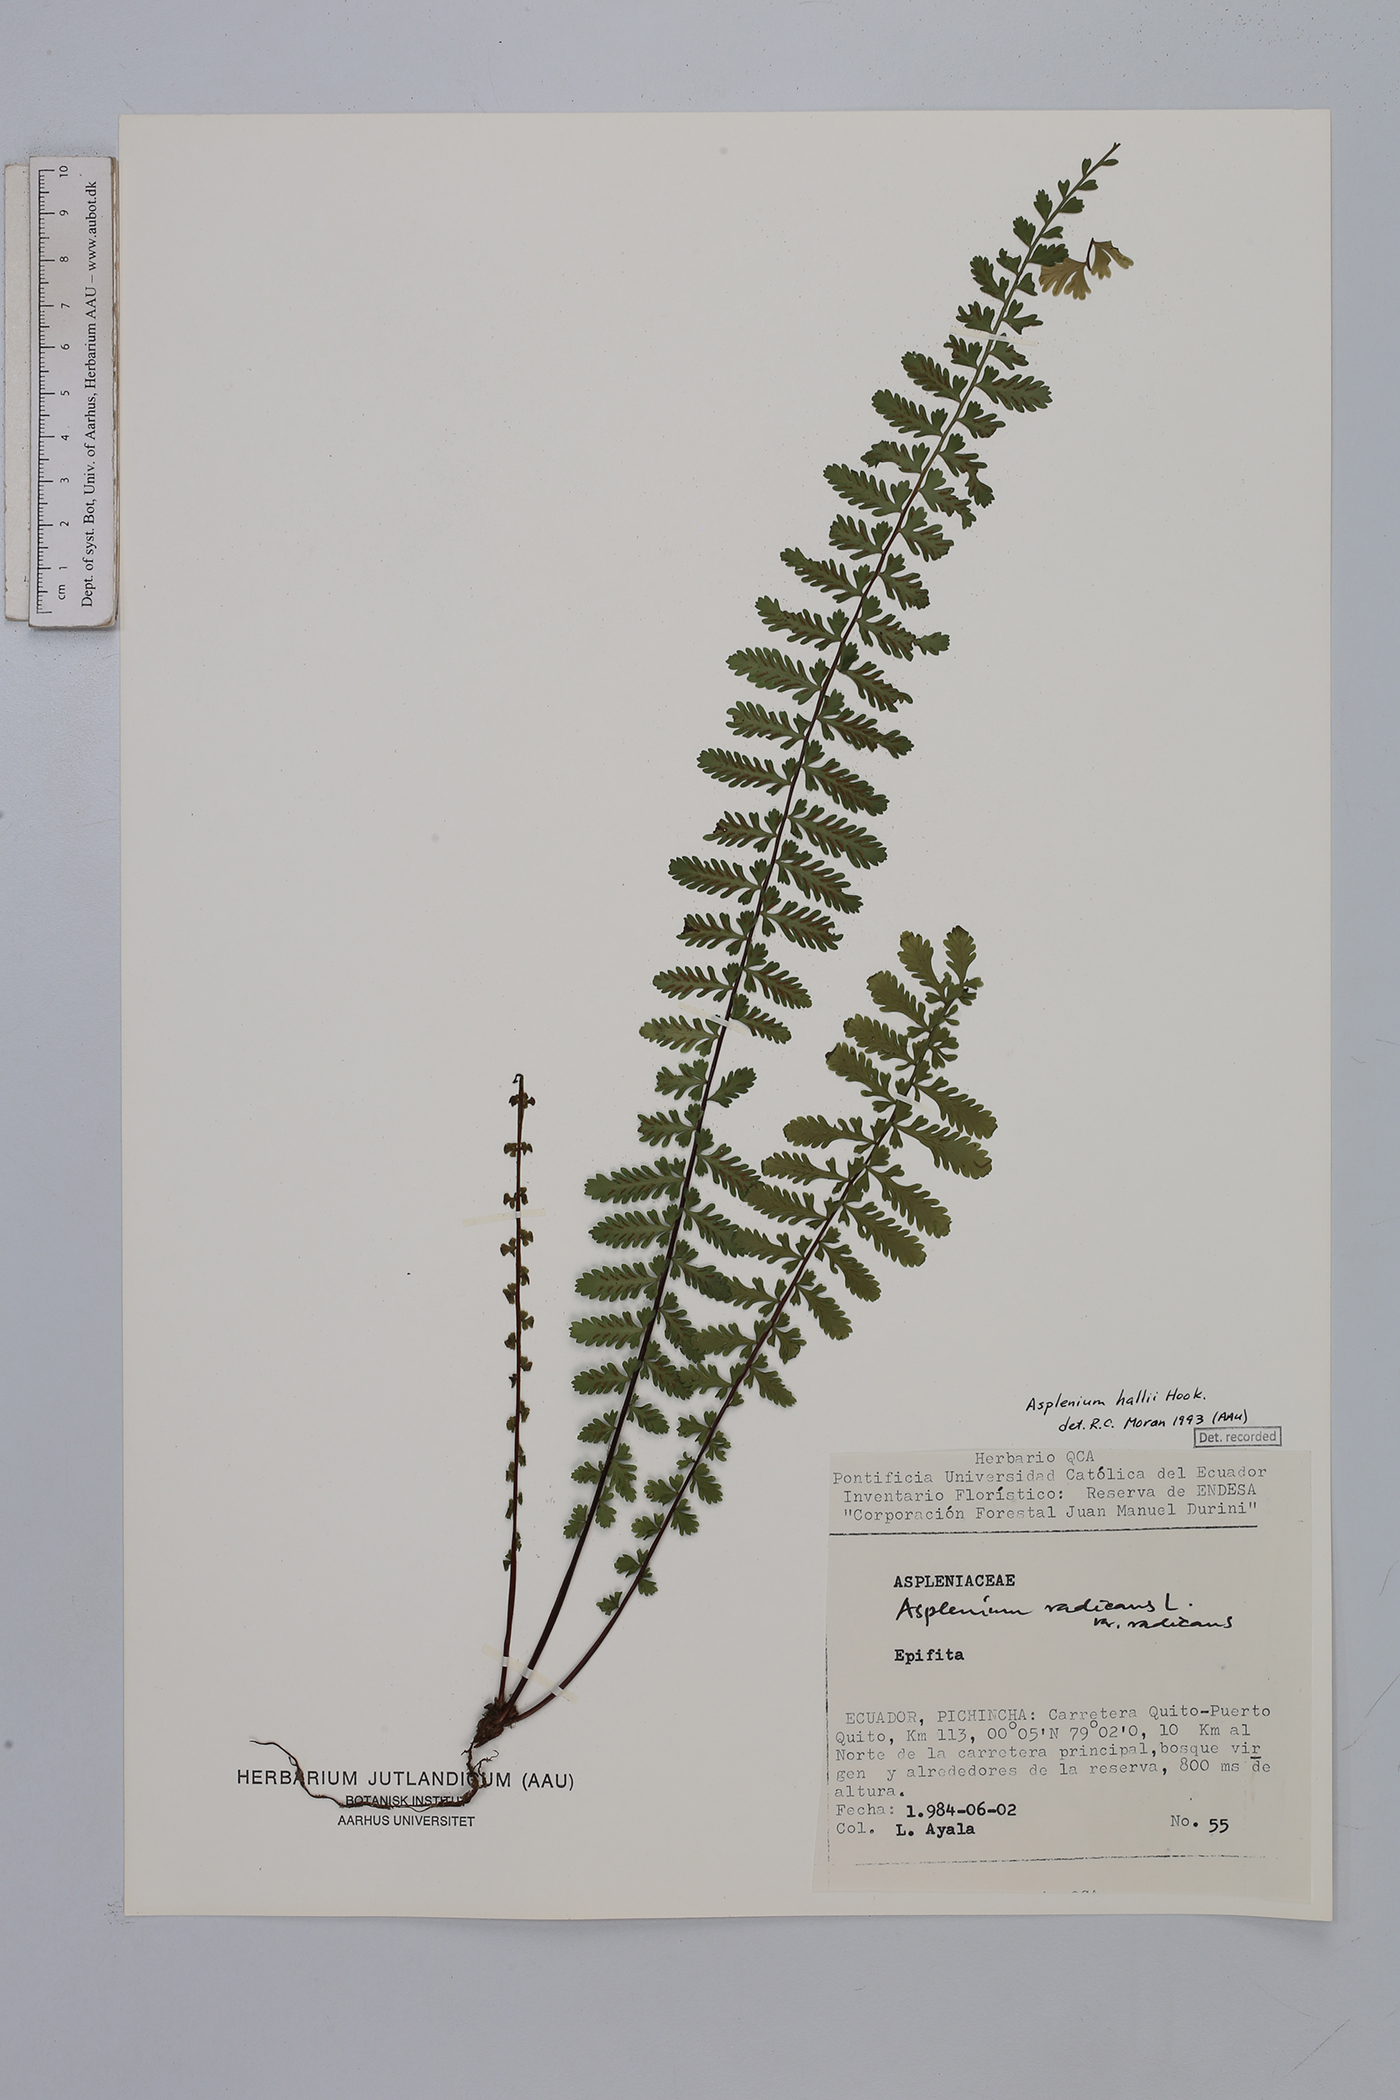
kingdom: Plantae
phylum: Tracheophyta
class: Polypodiopsida
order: Polypodiales
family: Aspleniaceae
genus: Asplenium
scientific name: Asplenium hallii
